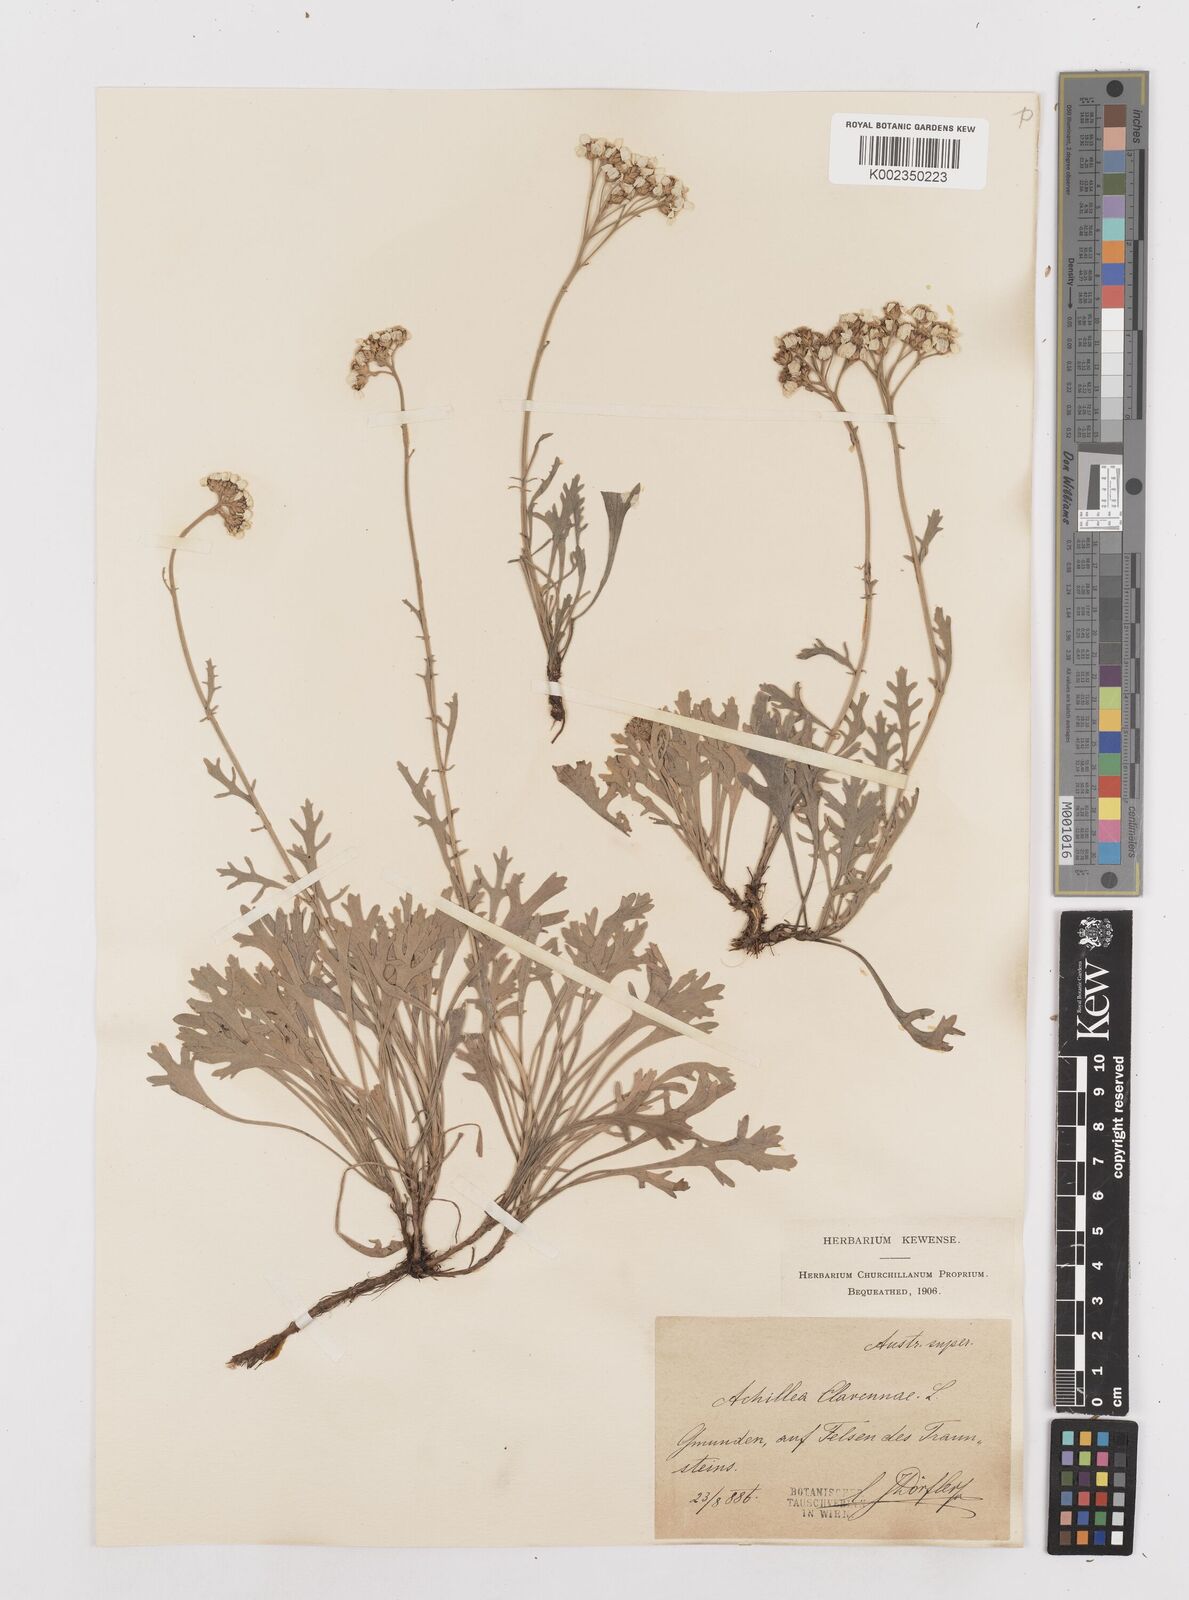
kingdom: Plantae
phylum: Tracheophyta
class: Magnoliopsida
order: Asterales
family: Asteraceae
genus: Achillea
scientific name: Achillea clavennae
